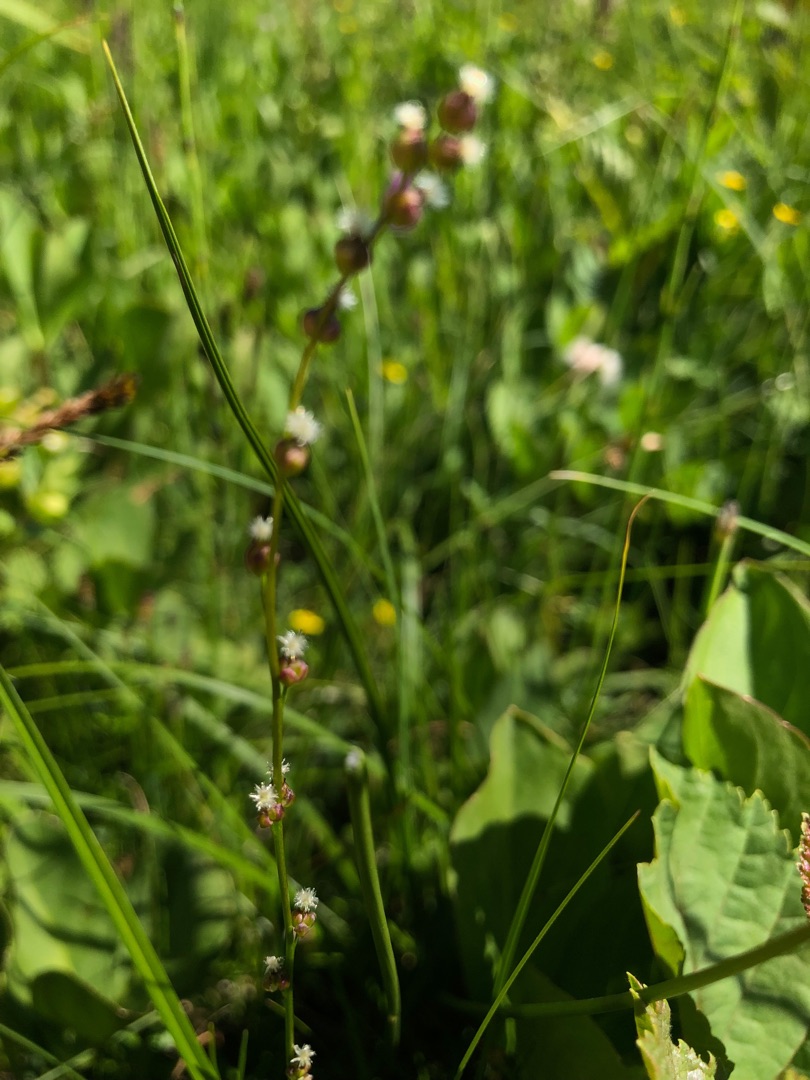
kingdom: Plantae
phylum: Tracheophyta
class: Liliopsida
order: Alismatales
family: Juncaginaceae
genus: Triglochin
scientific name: Triglochin palustris
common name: Kær-trehage
